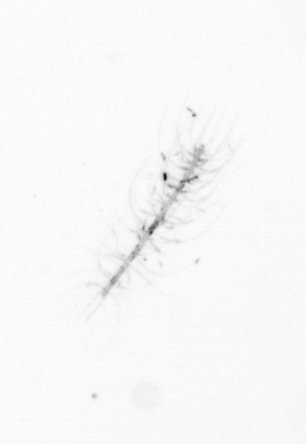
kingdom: Chromista
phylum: Ochrophyta
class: Bacillariophyceae
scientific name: Bacillariophyceae
